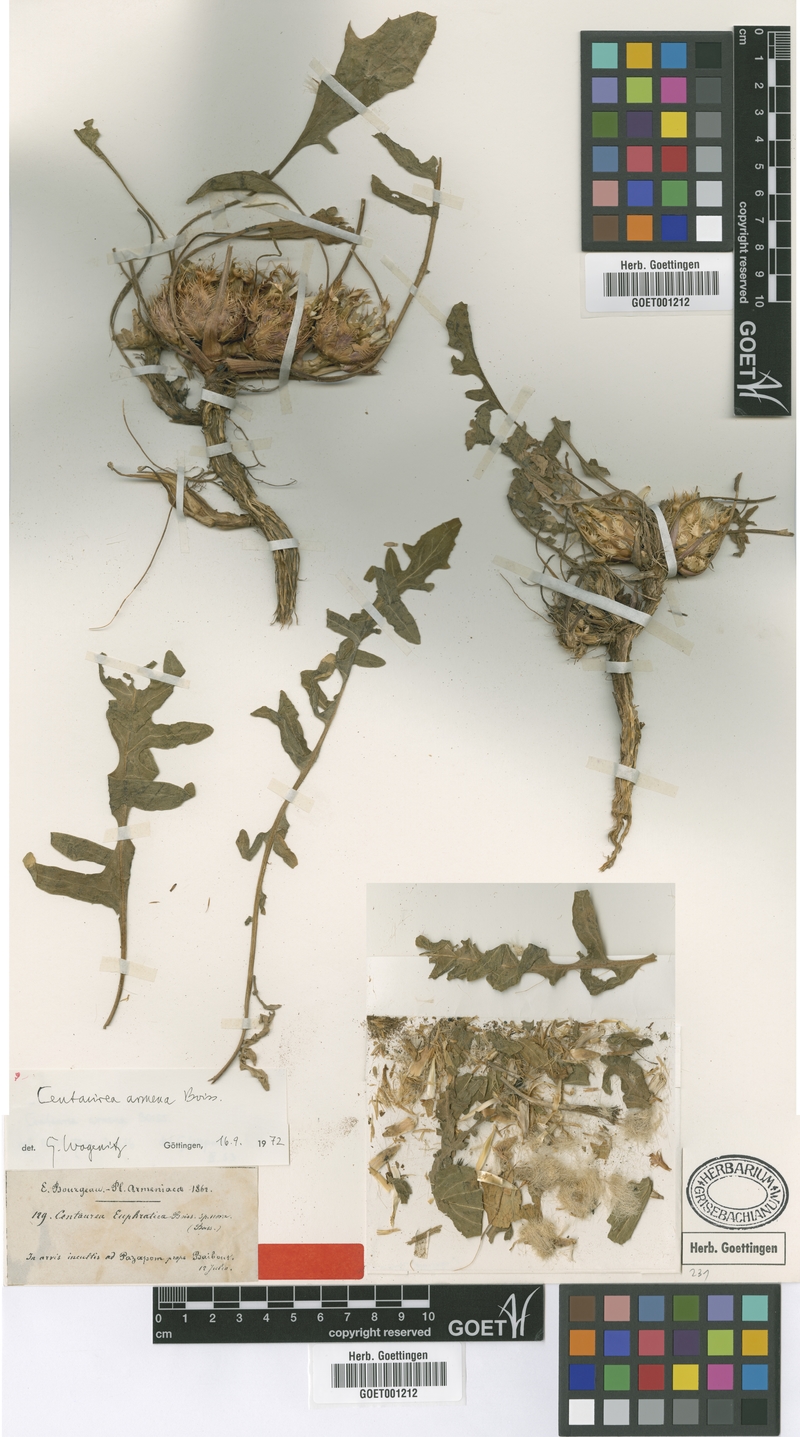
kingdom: Plantae
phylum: Tracheophyta
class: Magnoliopsida
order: Asterales
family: Asteraceae
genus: Centaurea
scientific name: Centaurea armena
